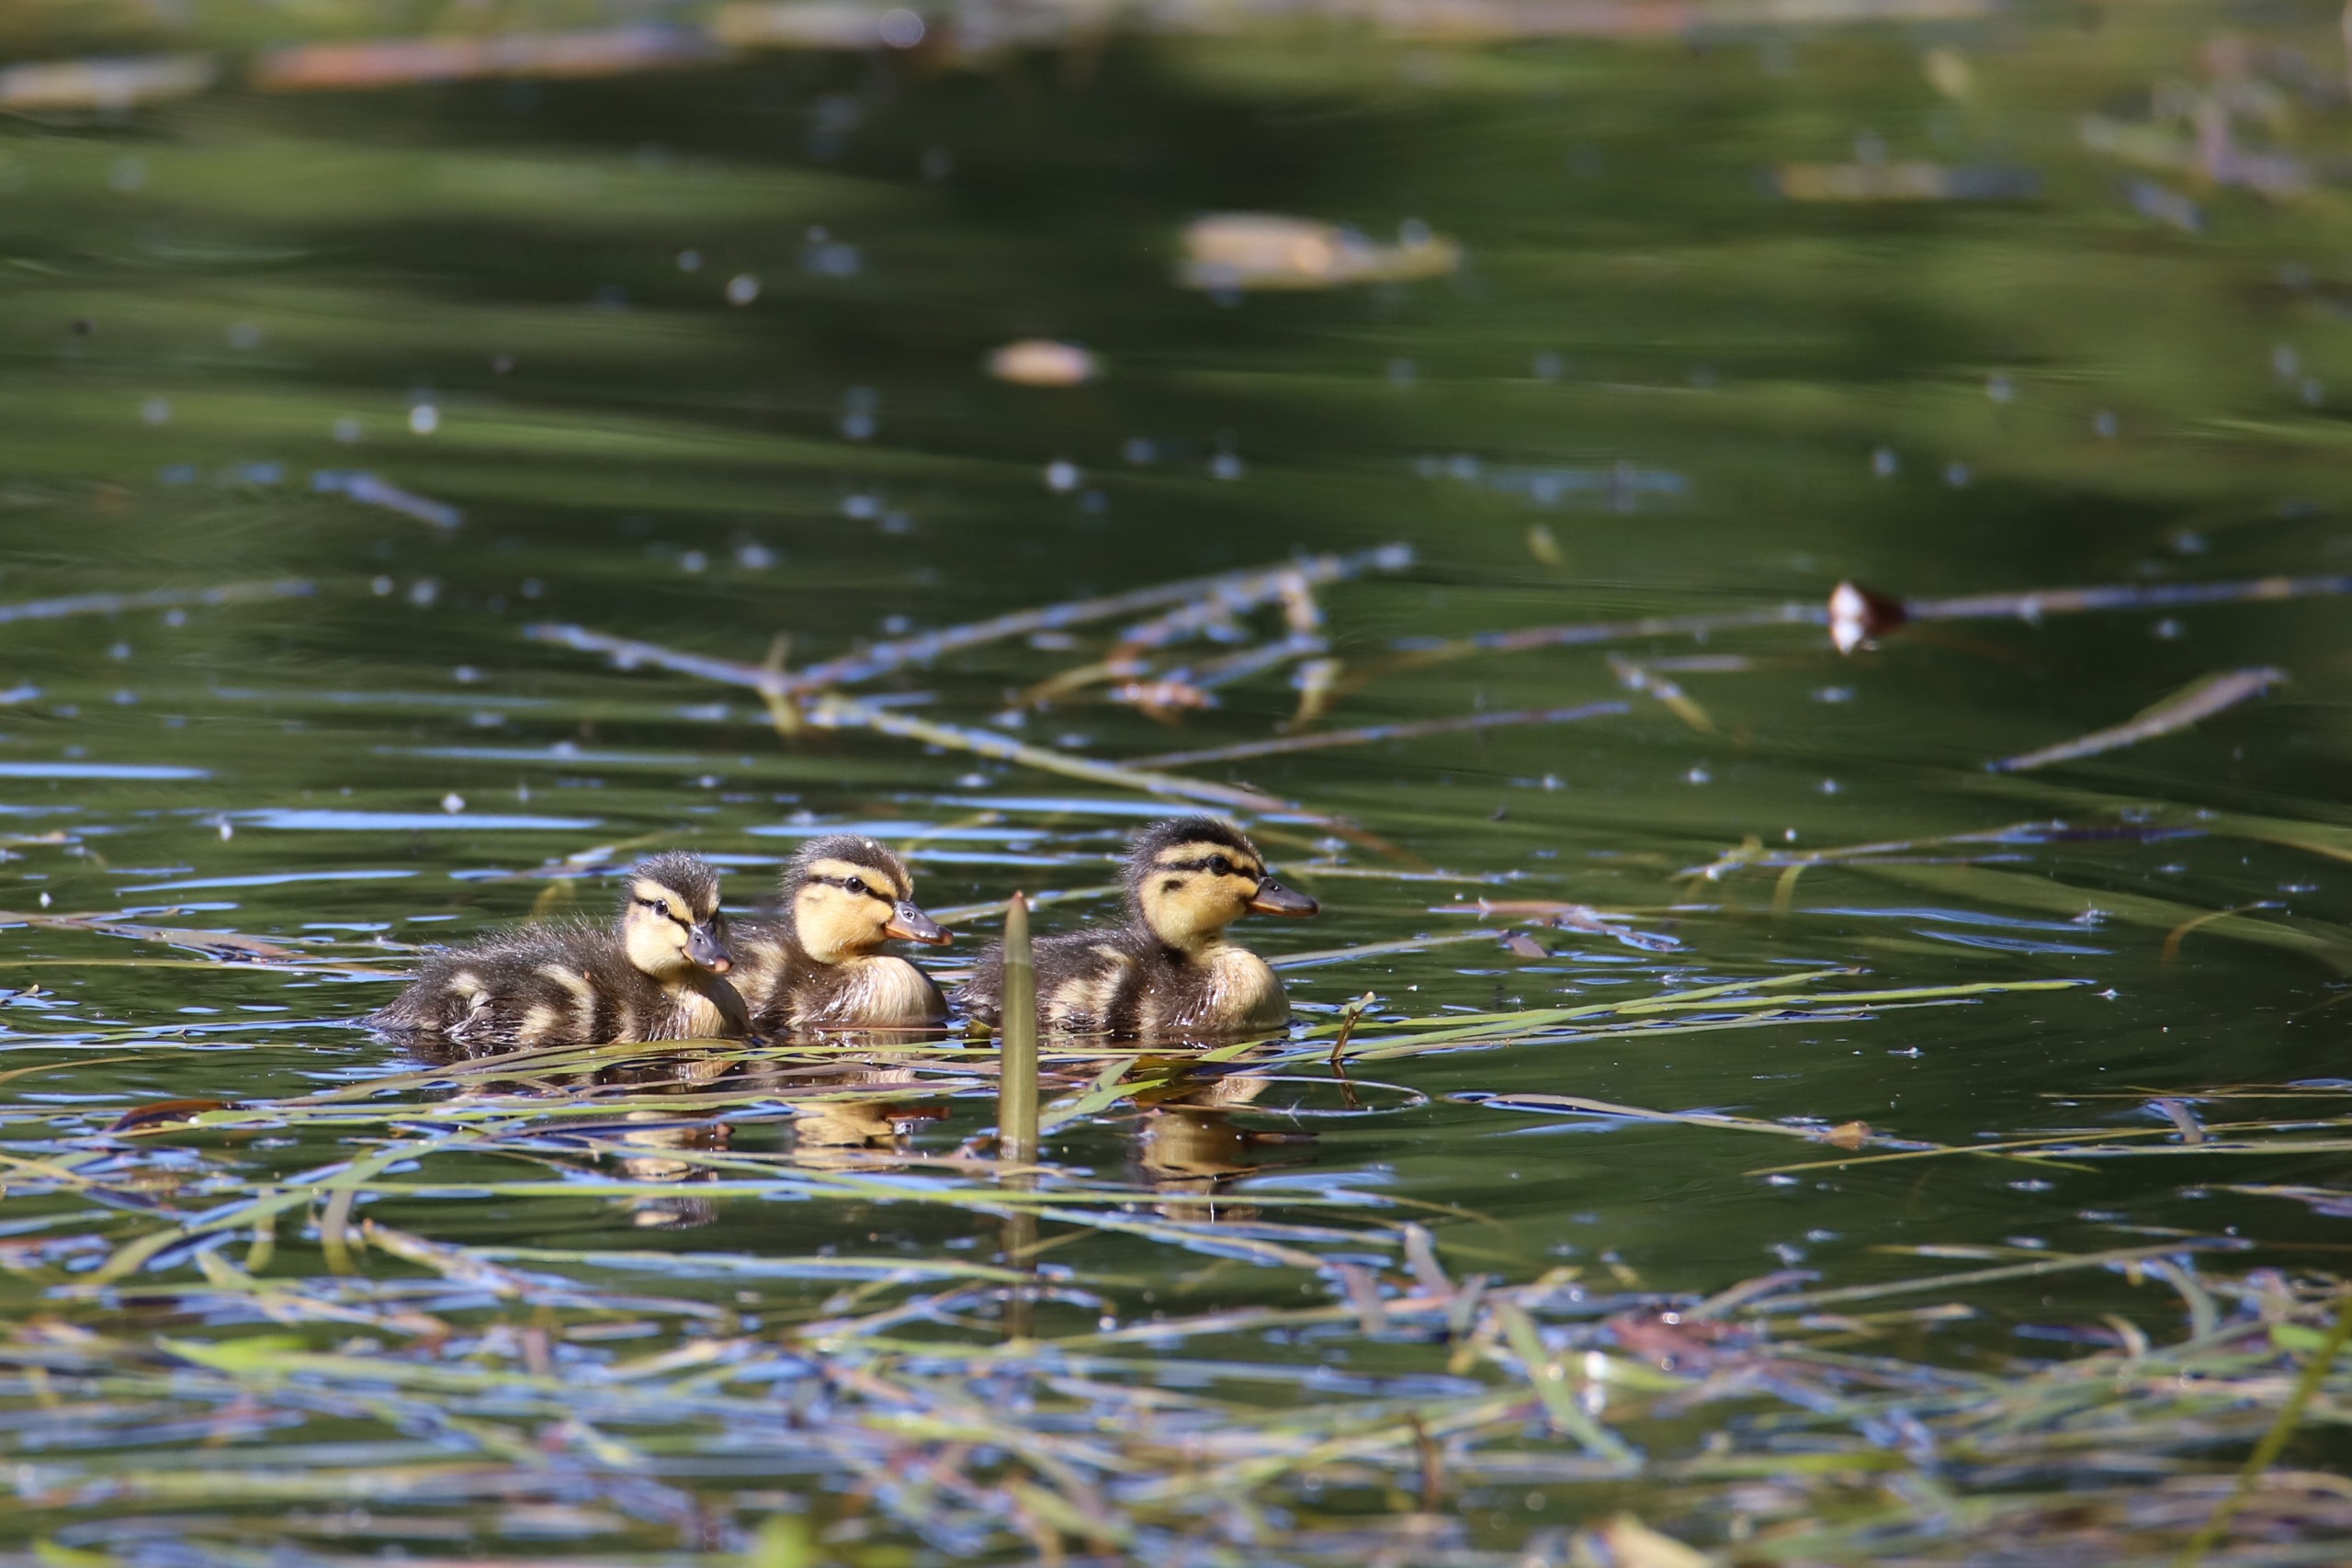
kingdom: Animalia
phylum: Chordata
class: Aves
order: Anseriformes
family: Anatidae
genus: Anas
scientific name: Anas platyrhynchos
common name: Gråand
